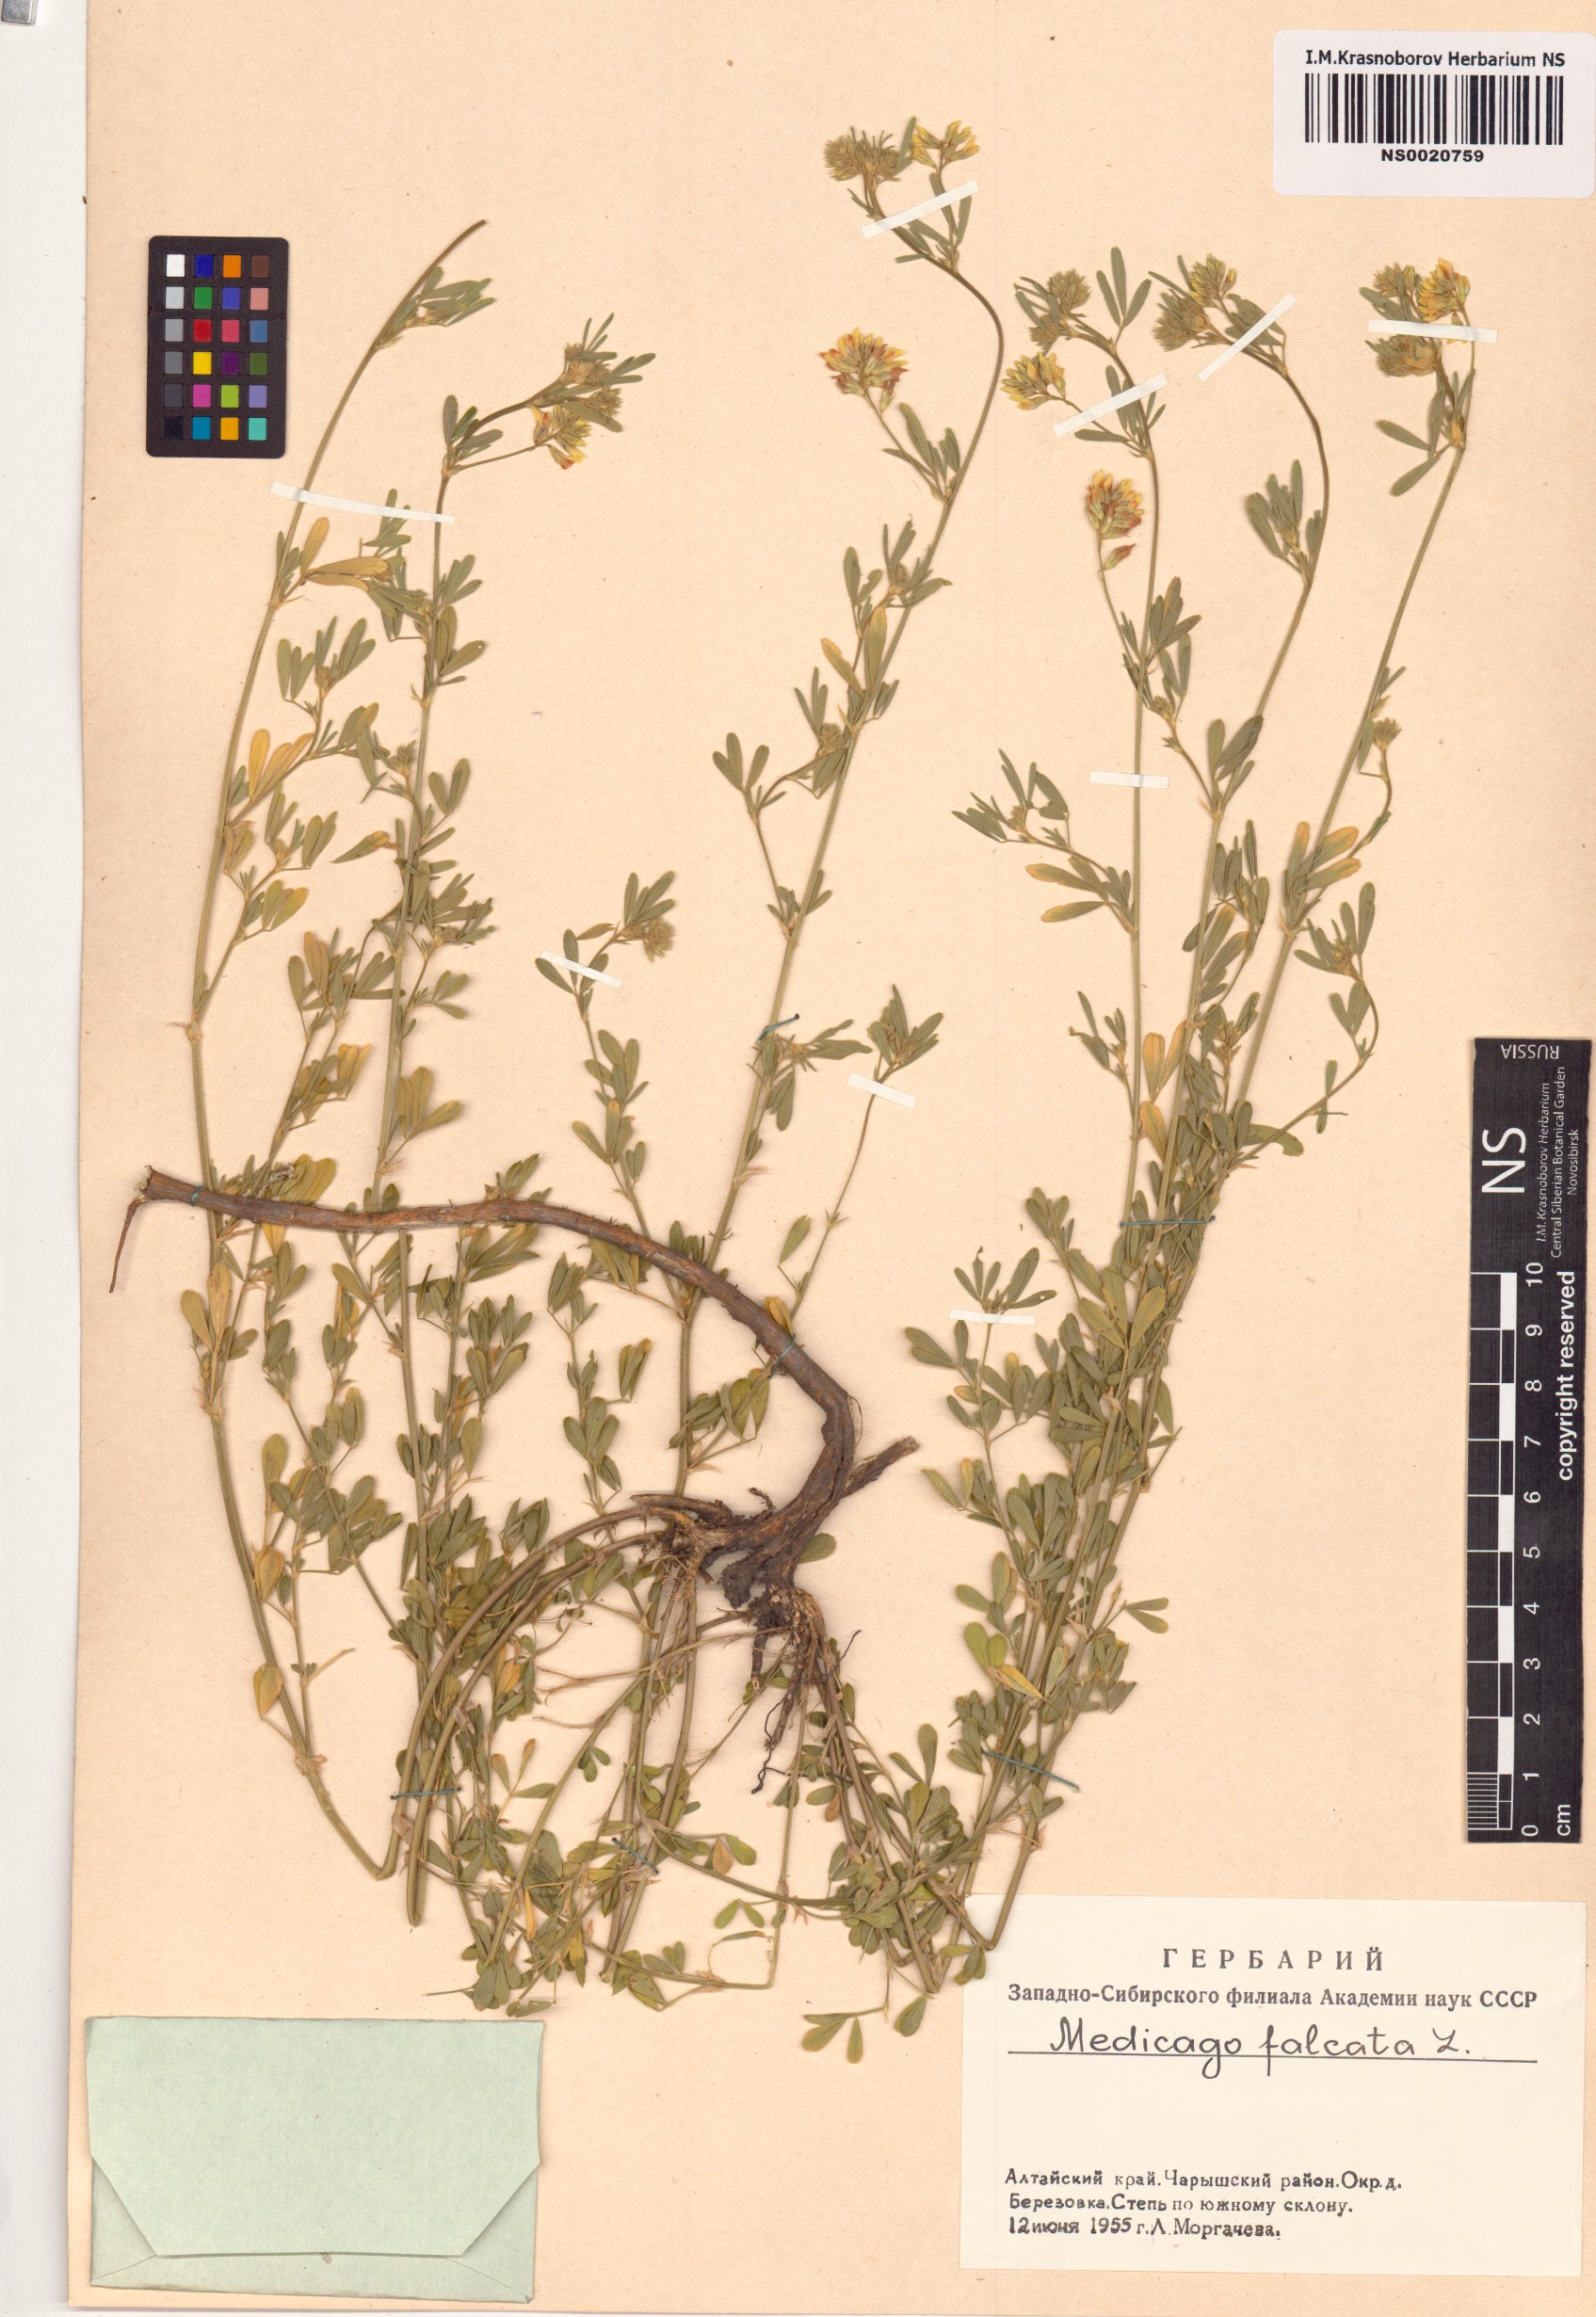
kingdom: Plantae
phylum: Tracheophyta
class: Magnoliopsida
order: Fabales
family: Fabaceae
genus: Medicago
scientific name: Medicago falcata
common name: Sickle medick
